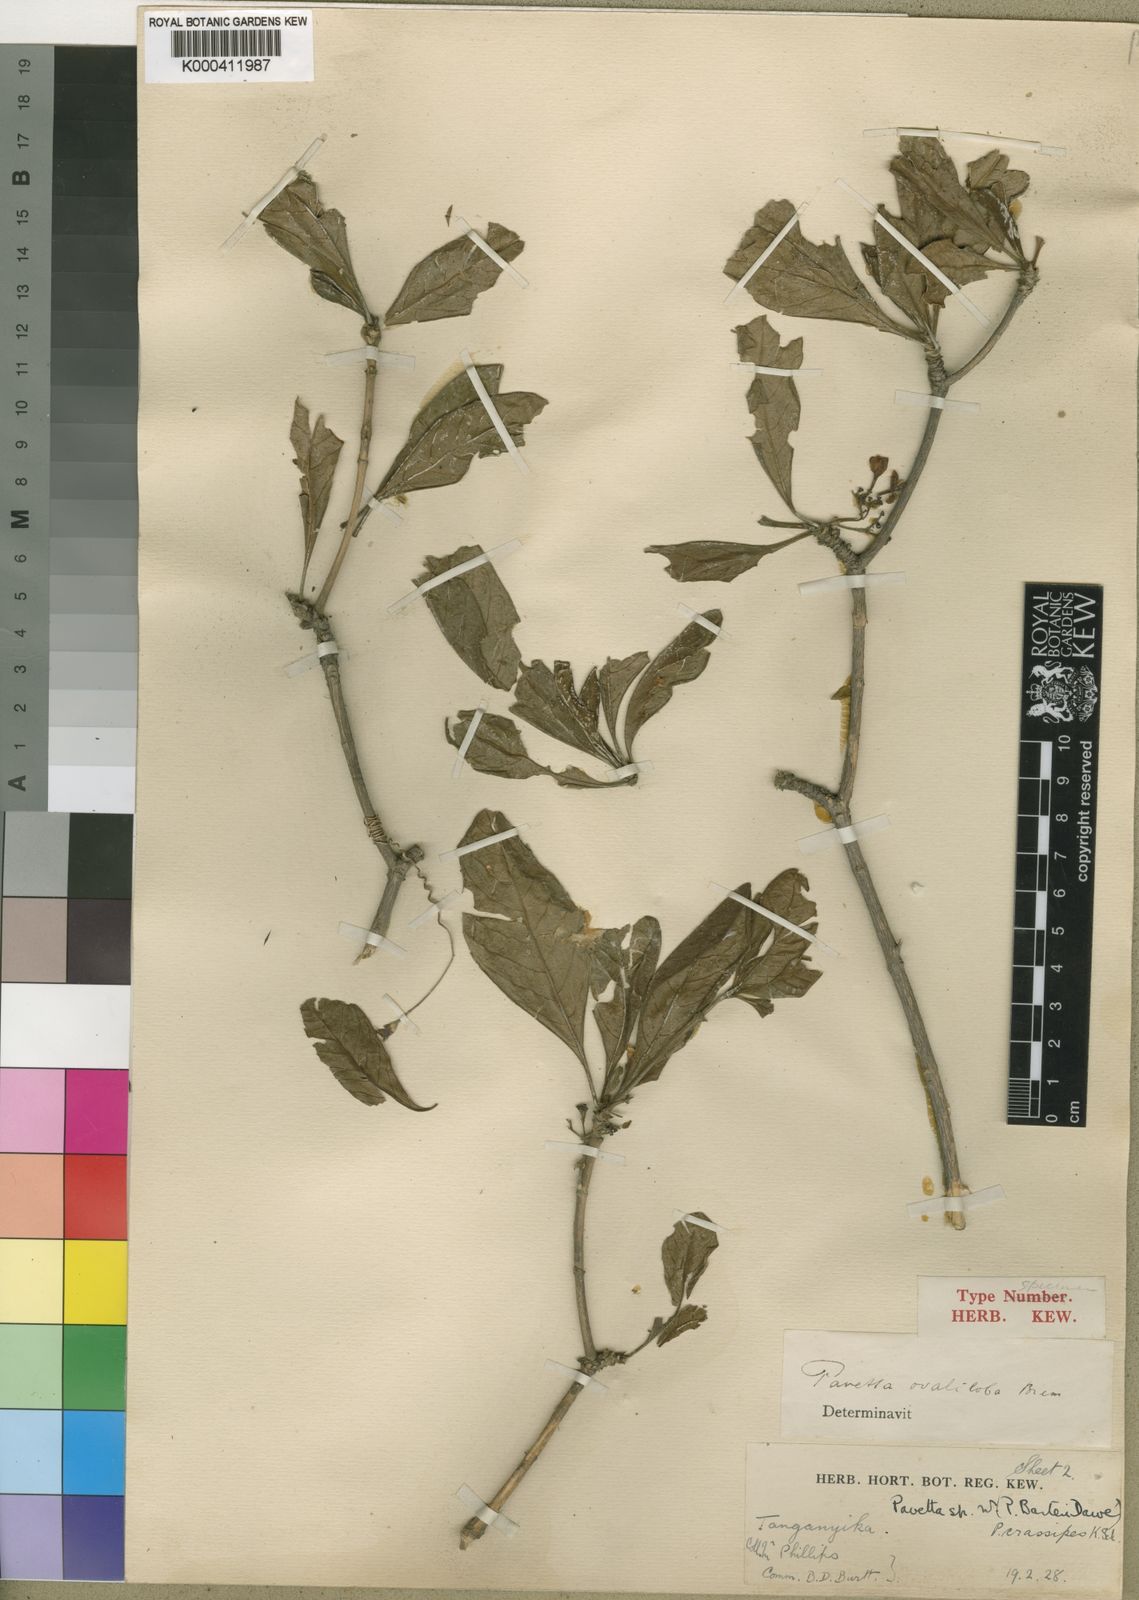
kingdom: Plantae
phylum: Tracheophyta
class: Magnoliopsida
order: Gentianales
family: Rubiaceae
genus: Pavetta
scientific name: Pavetta gardeniifolia
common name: Common brides-bush
